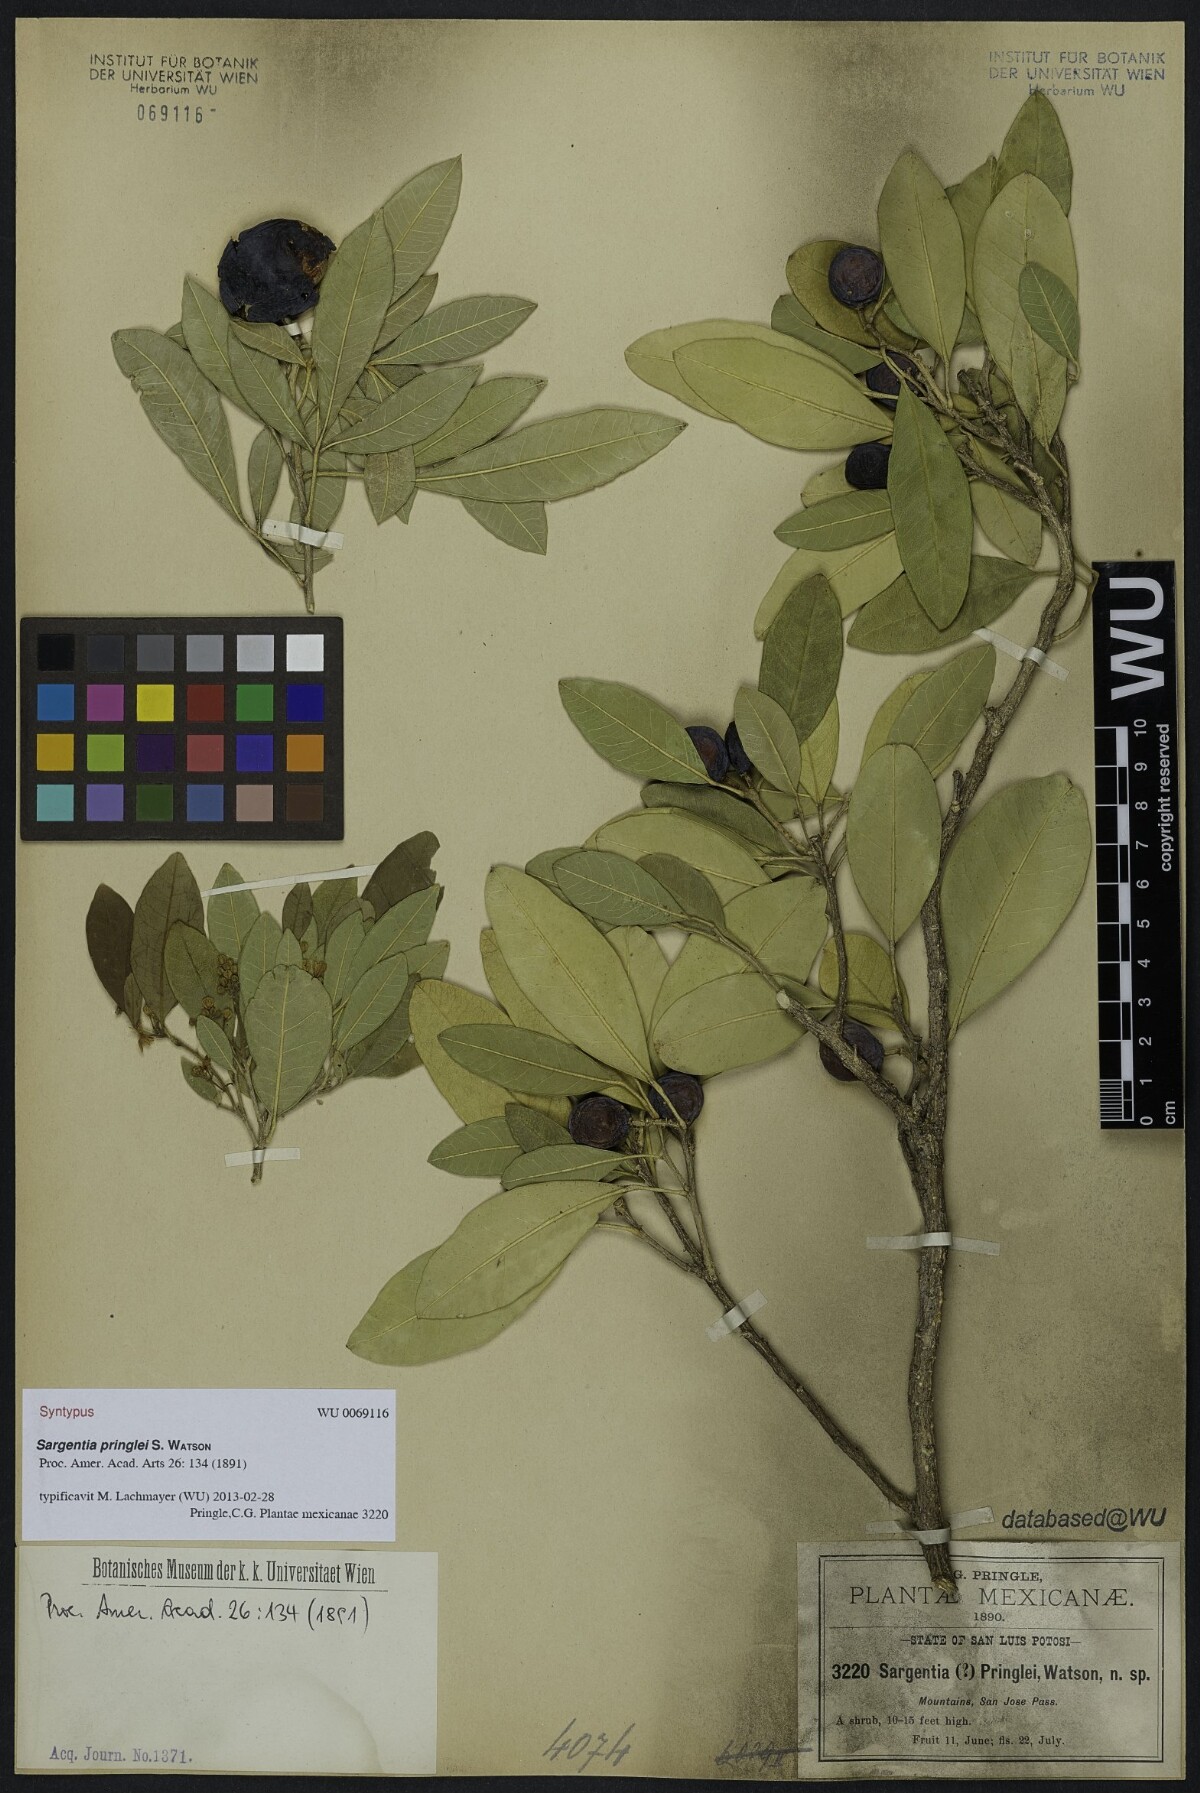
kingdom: Plantae
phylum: Tracheophyta
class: Magnoliopsida
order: Sapindales
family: Rutaceae
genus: Casimiroa
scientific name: Casimiroa pringlei
